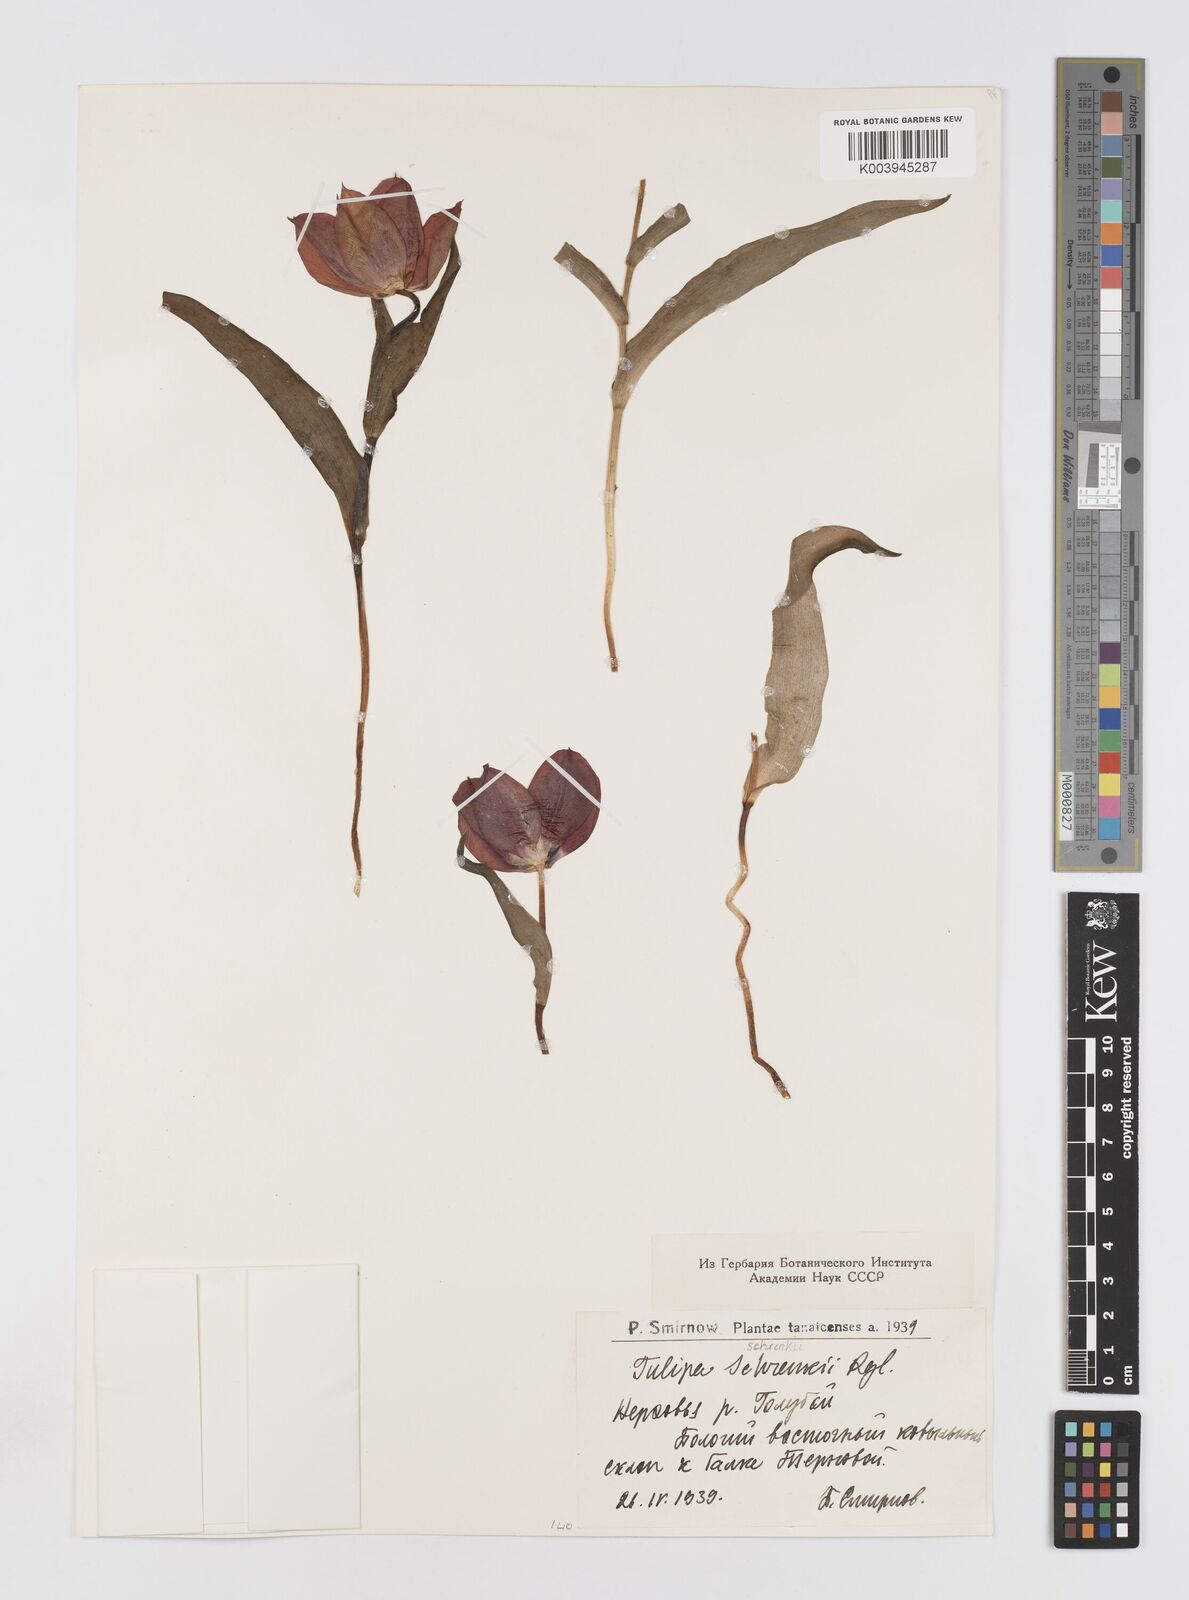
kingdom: Plantae
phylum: Tracheophyta
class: Liliopsida
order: Liliales
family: Liliaceae
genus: Tulipa
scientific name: Tulipa suaveolens
